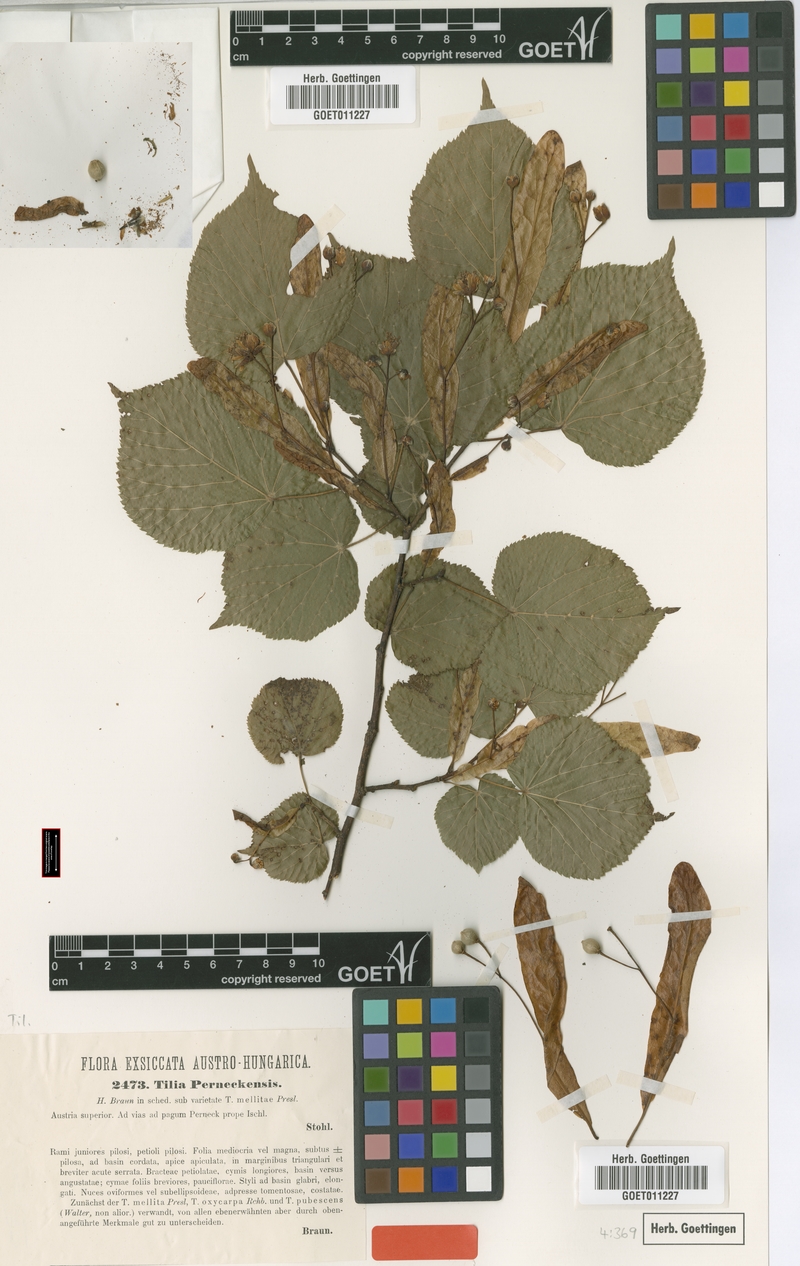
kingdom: Plantae
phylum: Tracheophyta
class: Magnoliopsida
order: Malvales
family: Malvaceae
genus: Tilia
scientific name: Tilia perneckensis
